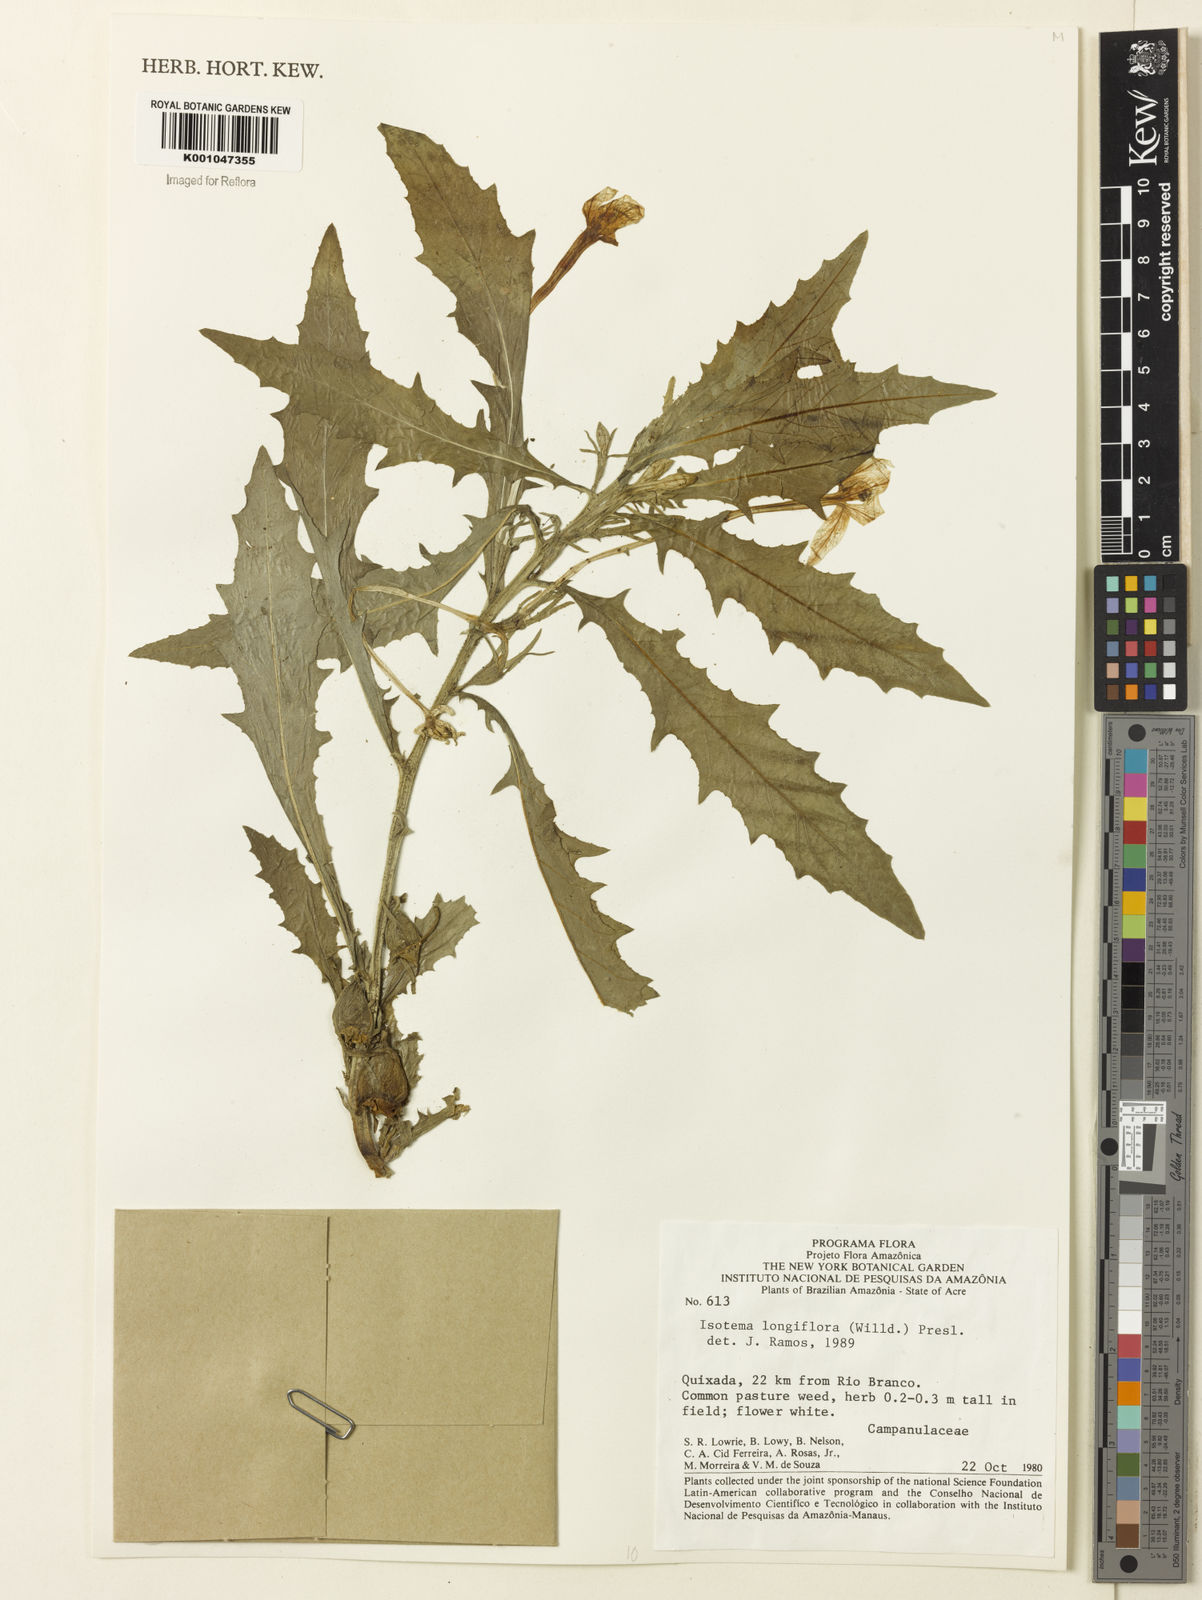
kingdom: Plantae
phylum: Tracheophyta
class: Magnoliopsida
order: Asterales
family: Campanulaceae
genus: Hippobroma
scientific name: Hippobroma longiflora
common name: Madamfate
